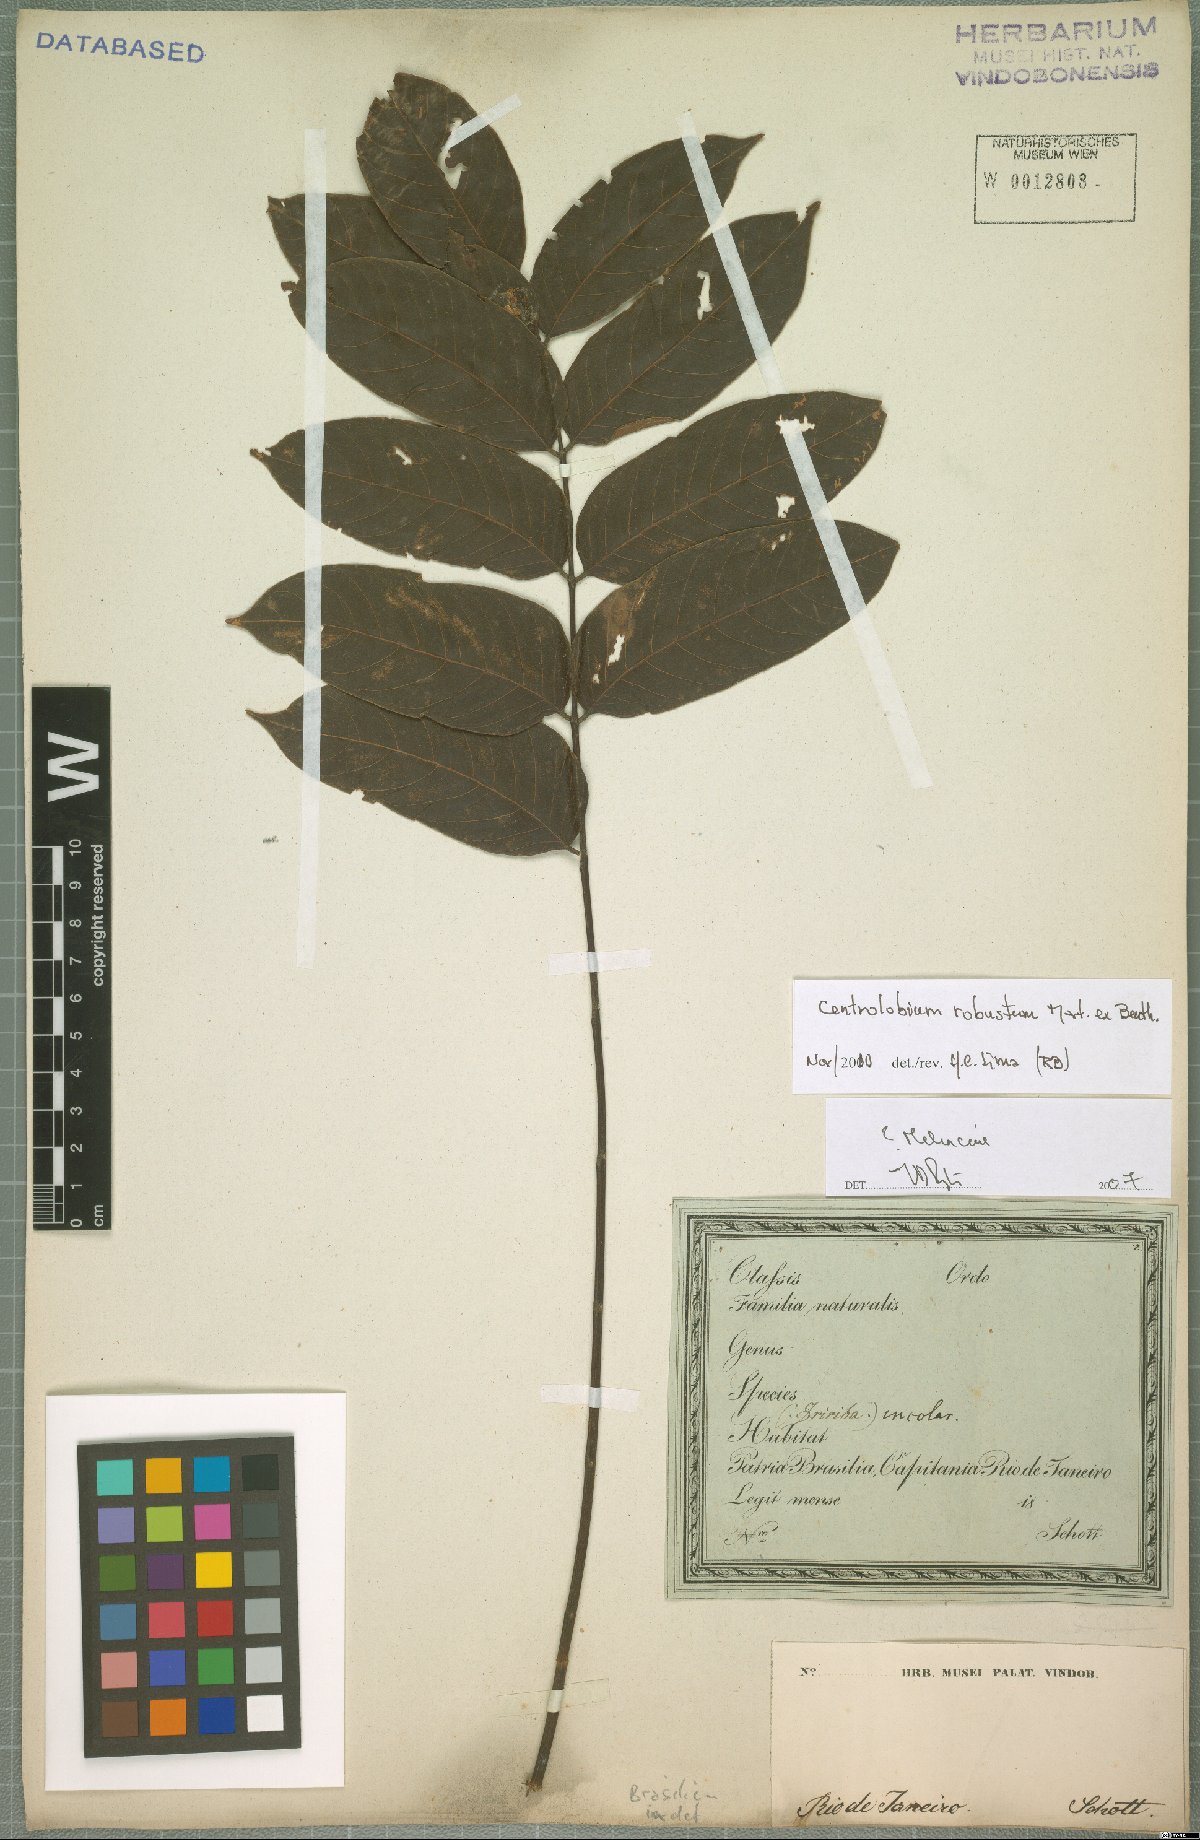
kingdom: Plantae
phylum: Tracheophyta
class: Magnoliopsida
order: Fabales
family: Fabaceae
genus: Centrolobium
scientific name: Centrolobium robustum
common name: Zebrawood
